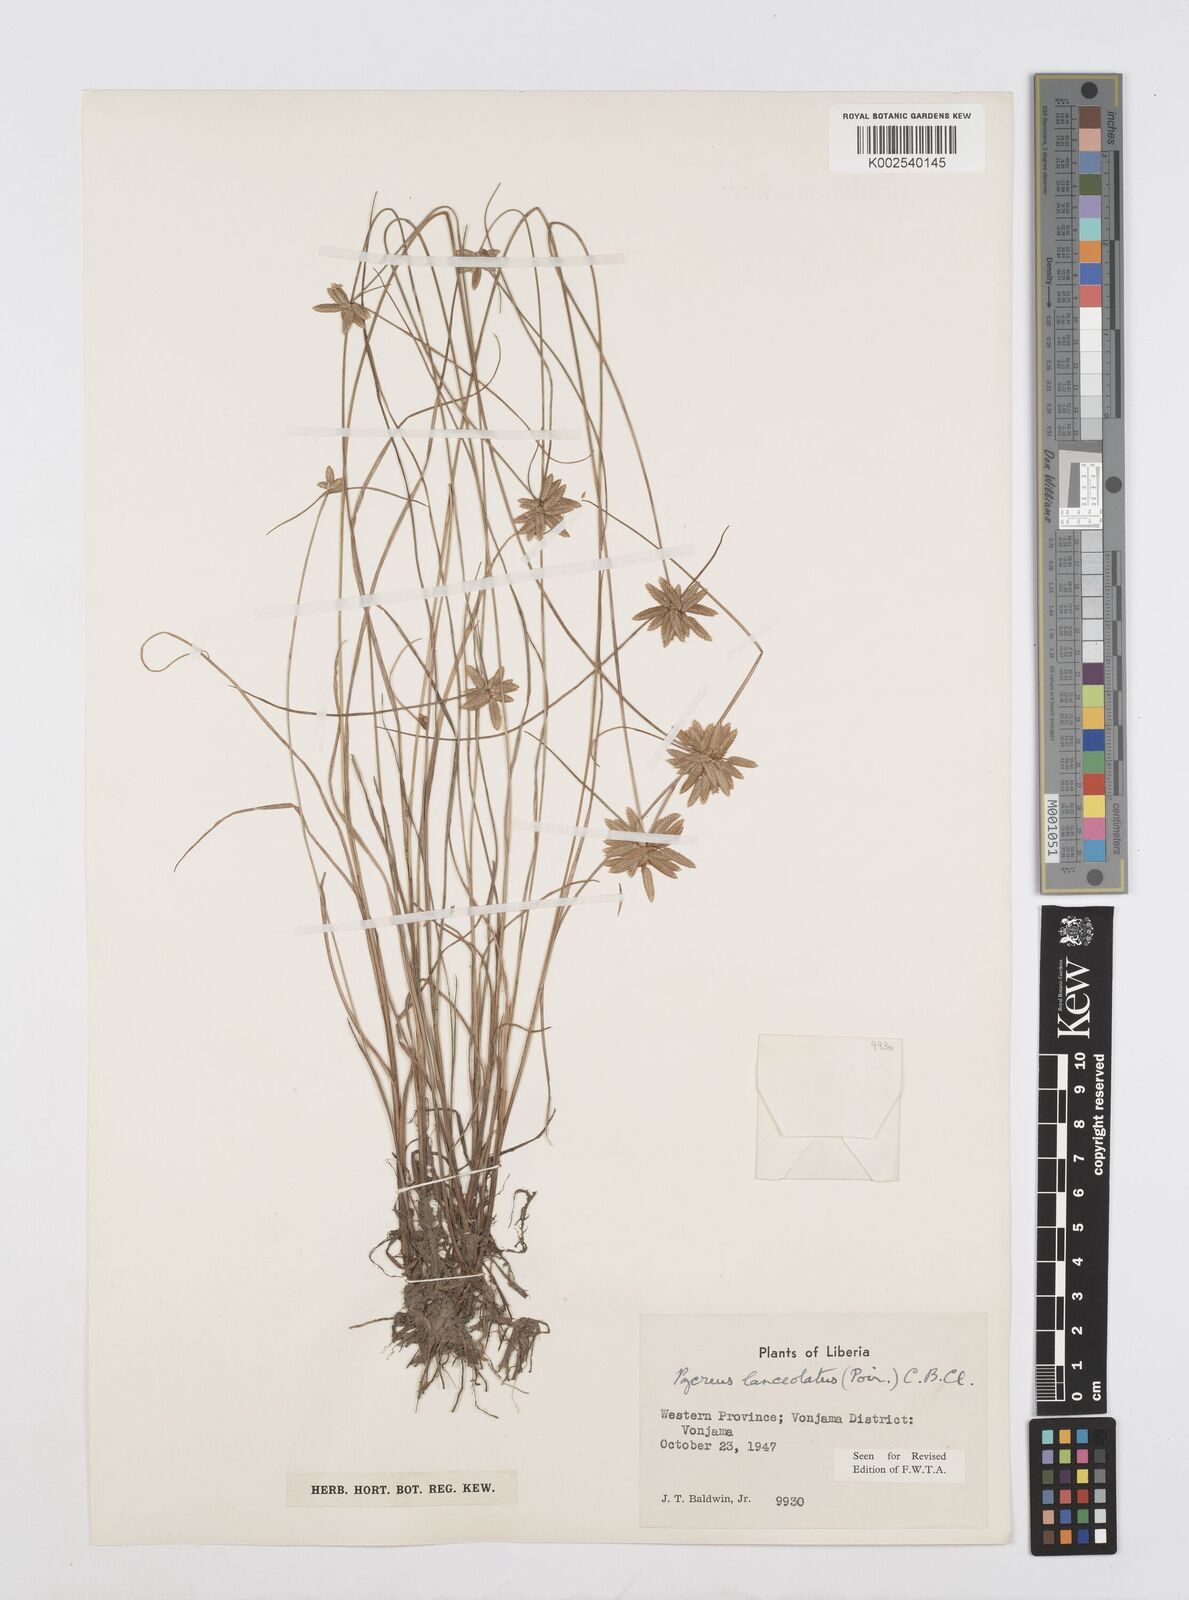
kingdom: Plantae
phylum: Tracheophyta
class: Liliopsida
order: Poales
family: Cyperaceae
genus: Cyperus
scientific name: Cyperus
